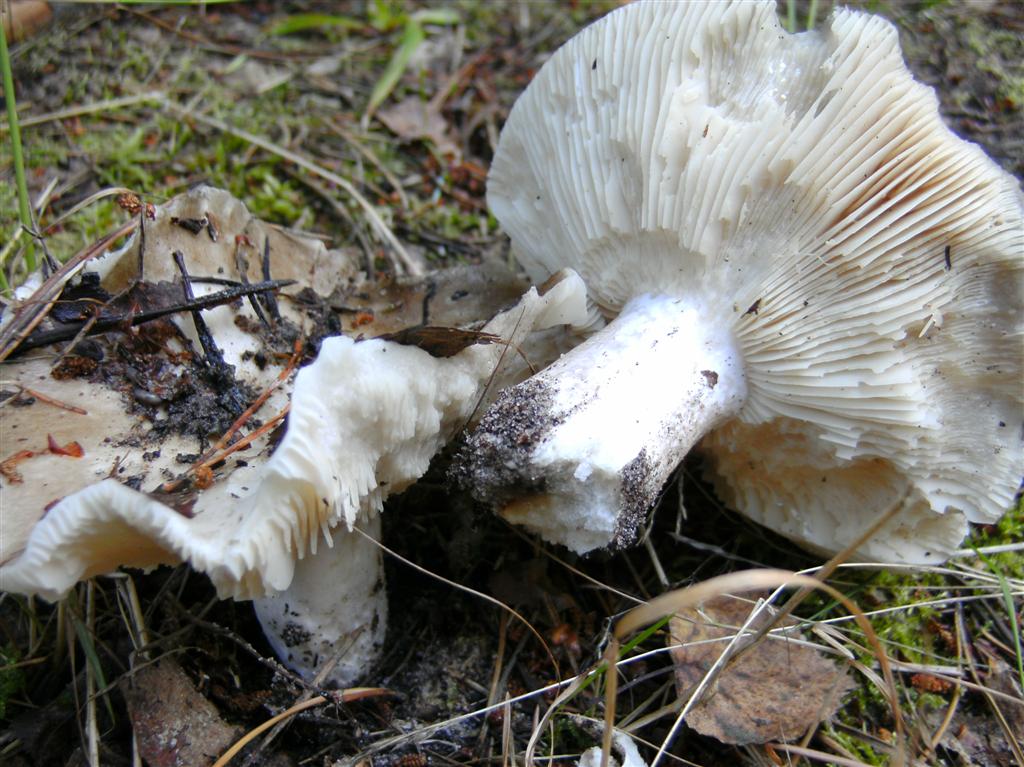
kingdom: Fungi
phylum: Basidiomycota
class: Agaricomycetes
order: Russulales
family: Russulaceae
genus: Russula
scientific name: Russula adusta
